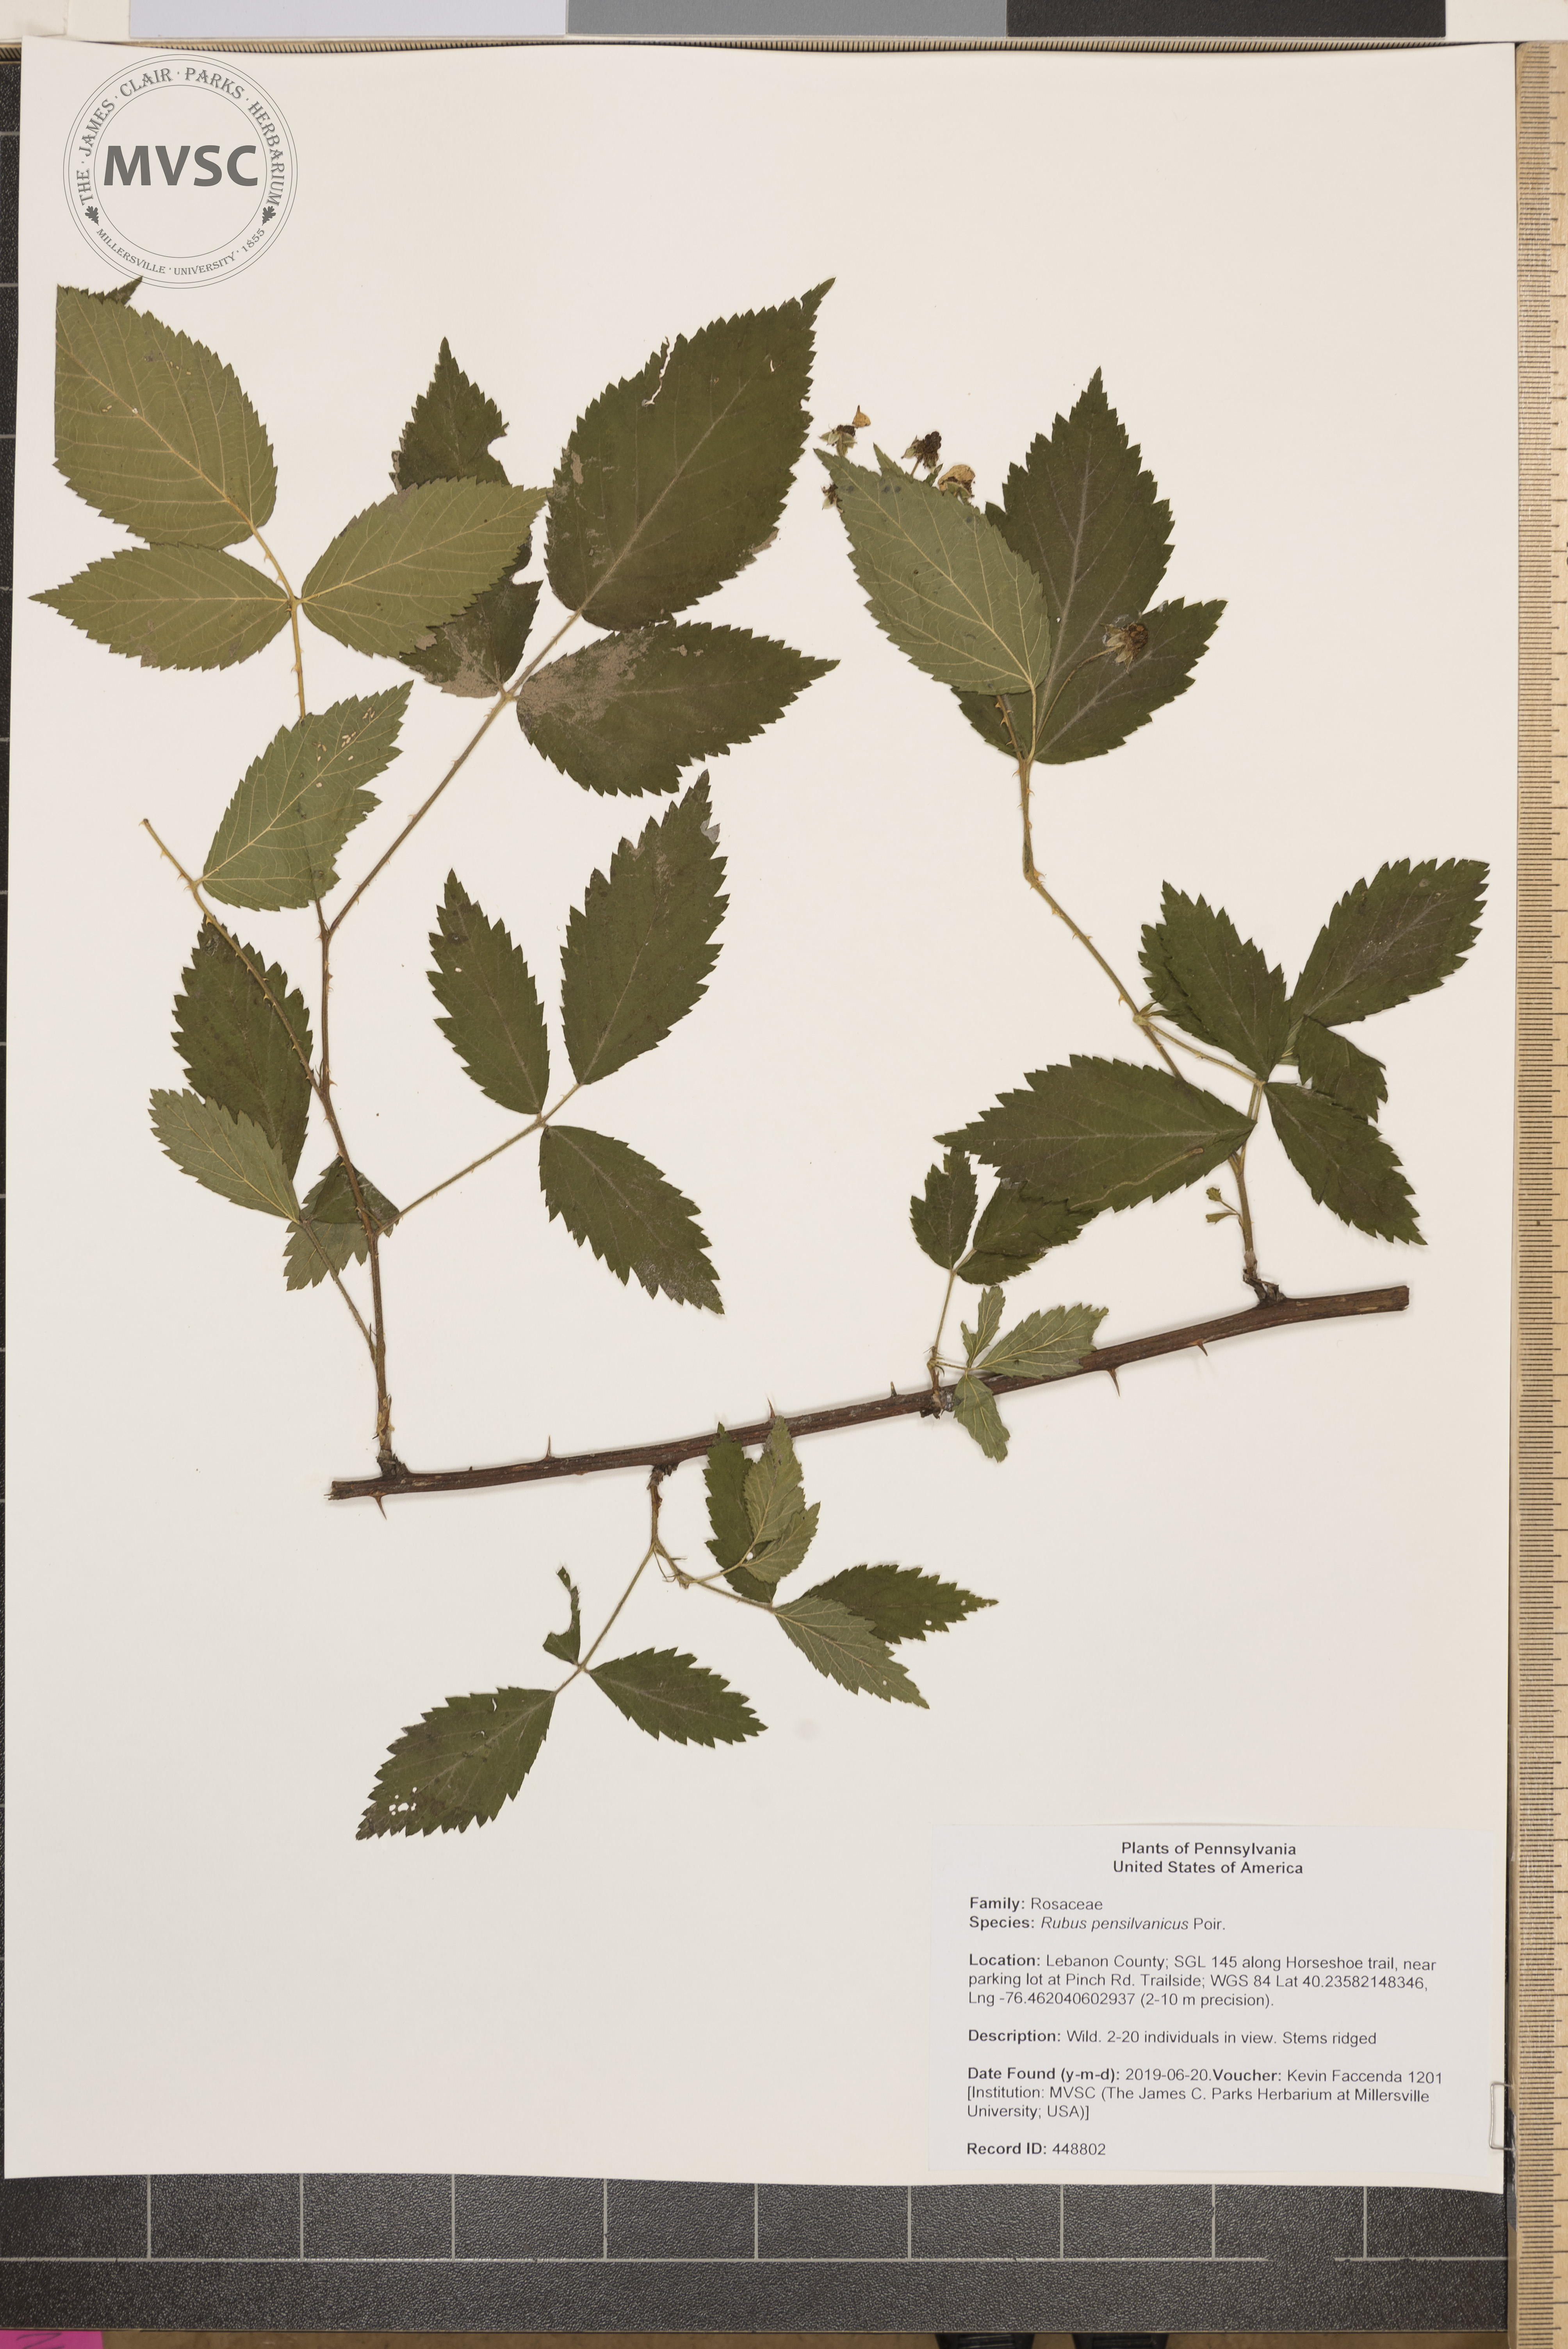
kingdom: Plantae
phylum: Tracheophyta
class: Magnoliopsida
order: Rosales
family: Rosaceae
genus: Rubus
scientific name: Rubus pensilvanicus
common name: Pennsylvania blackberry
